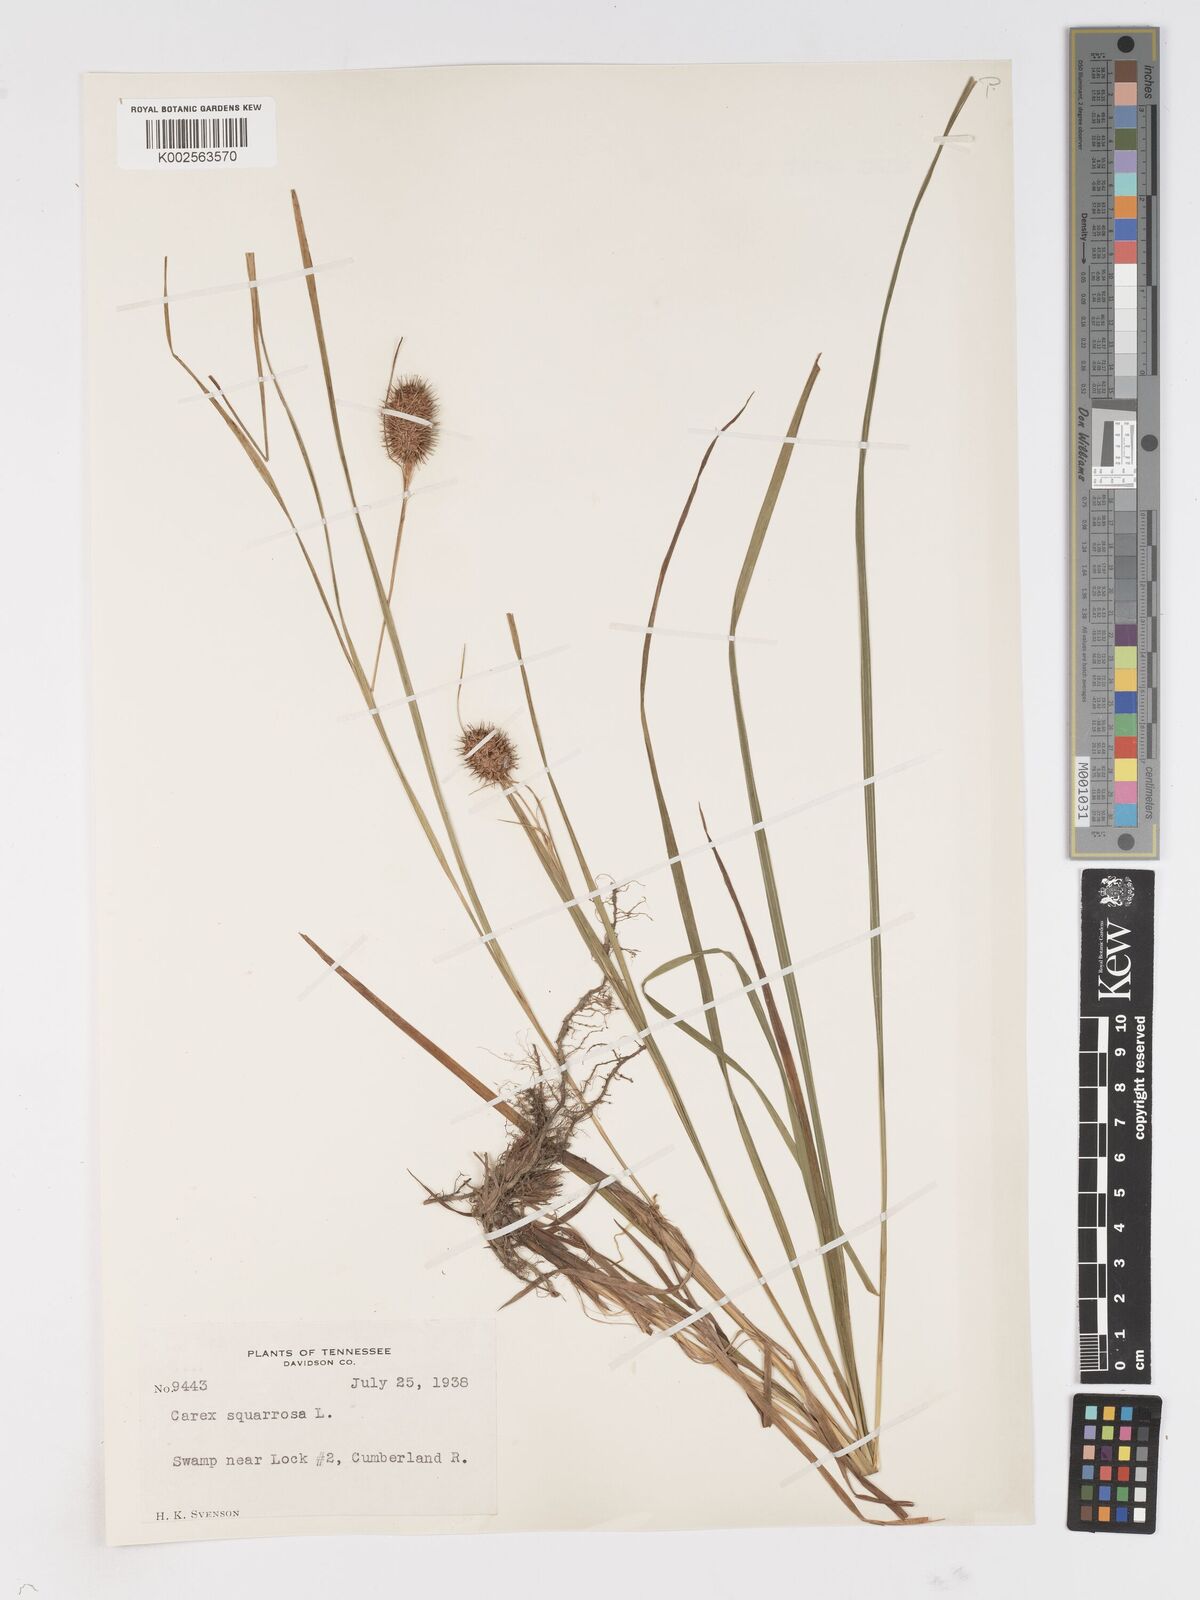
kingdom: Plantae
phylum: Tracheophyta
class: Liliopsida
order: Poales
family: Cyperaceae
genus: Carex
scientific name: Carex squarrosa
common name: Narrow-leaved cattail sedge
